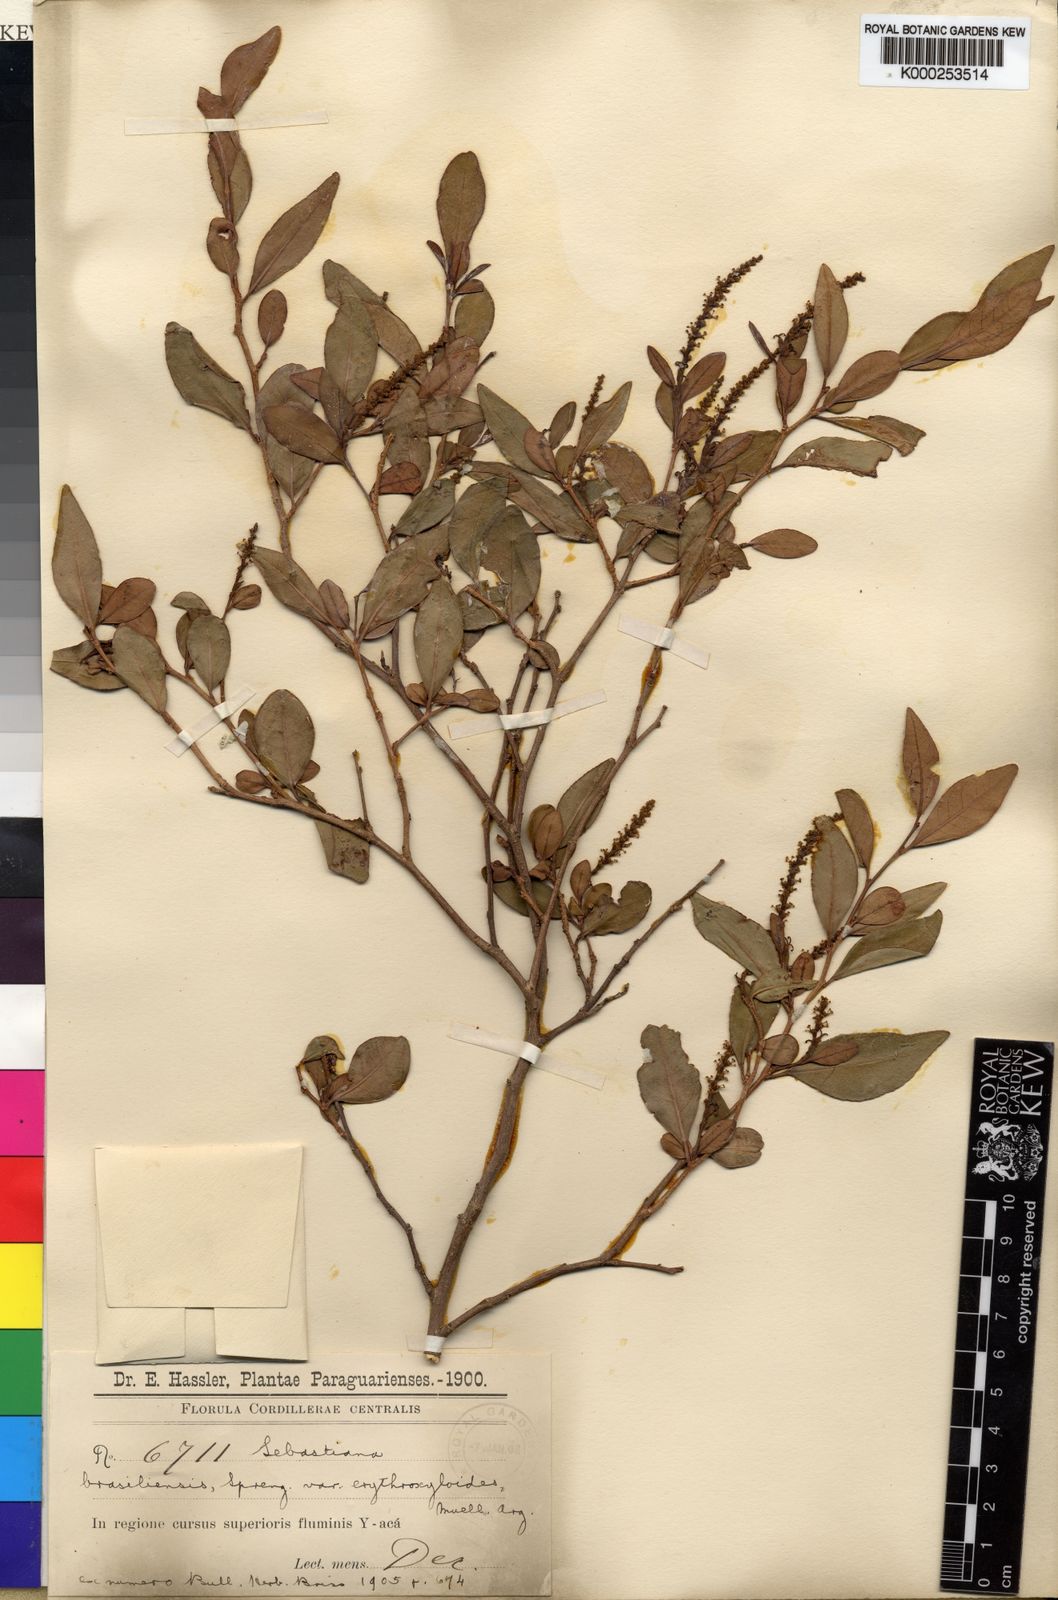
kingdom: Plantae
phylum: Tracheophyta
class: Magnoliopsida
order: Malpighiales
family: Euphorbiaceae
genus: Sebastiania
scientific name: Sebastiania
